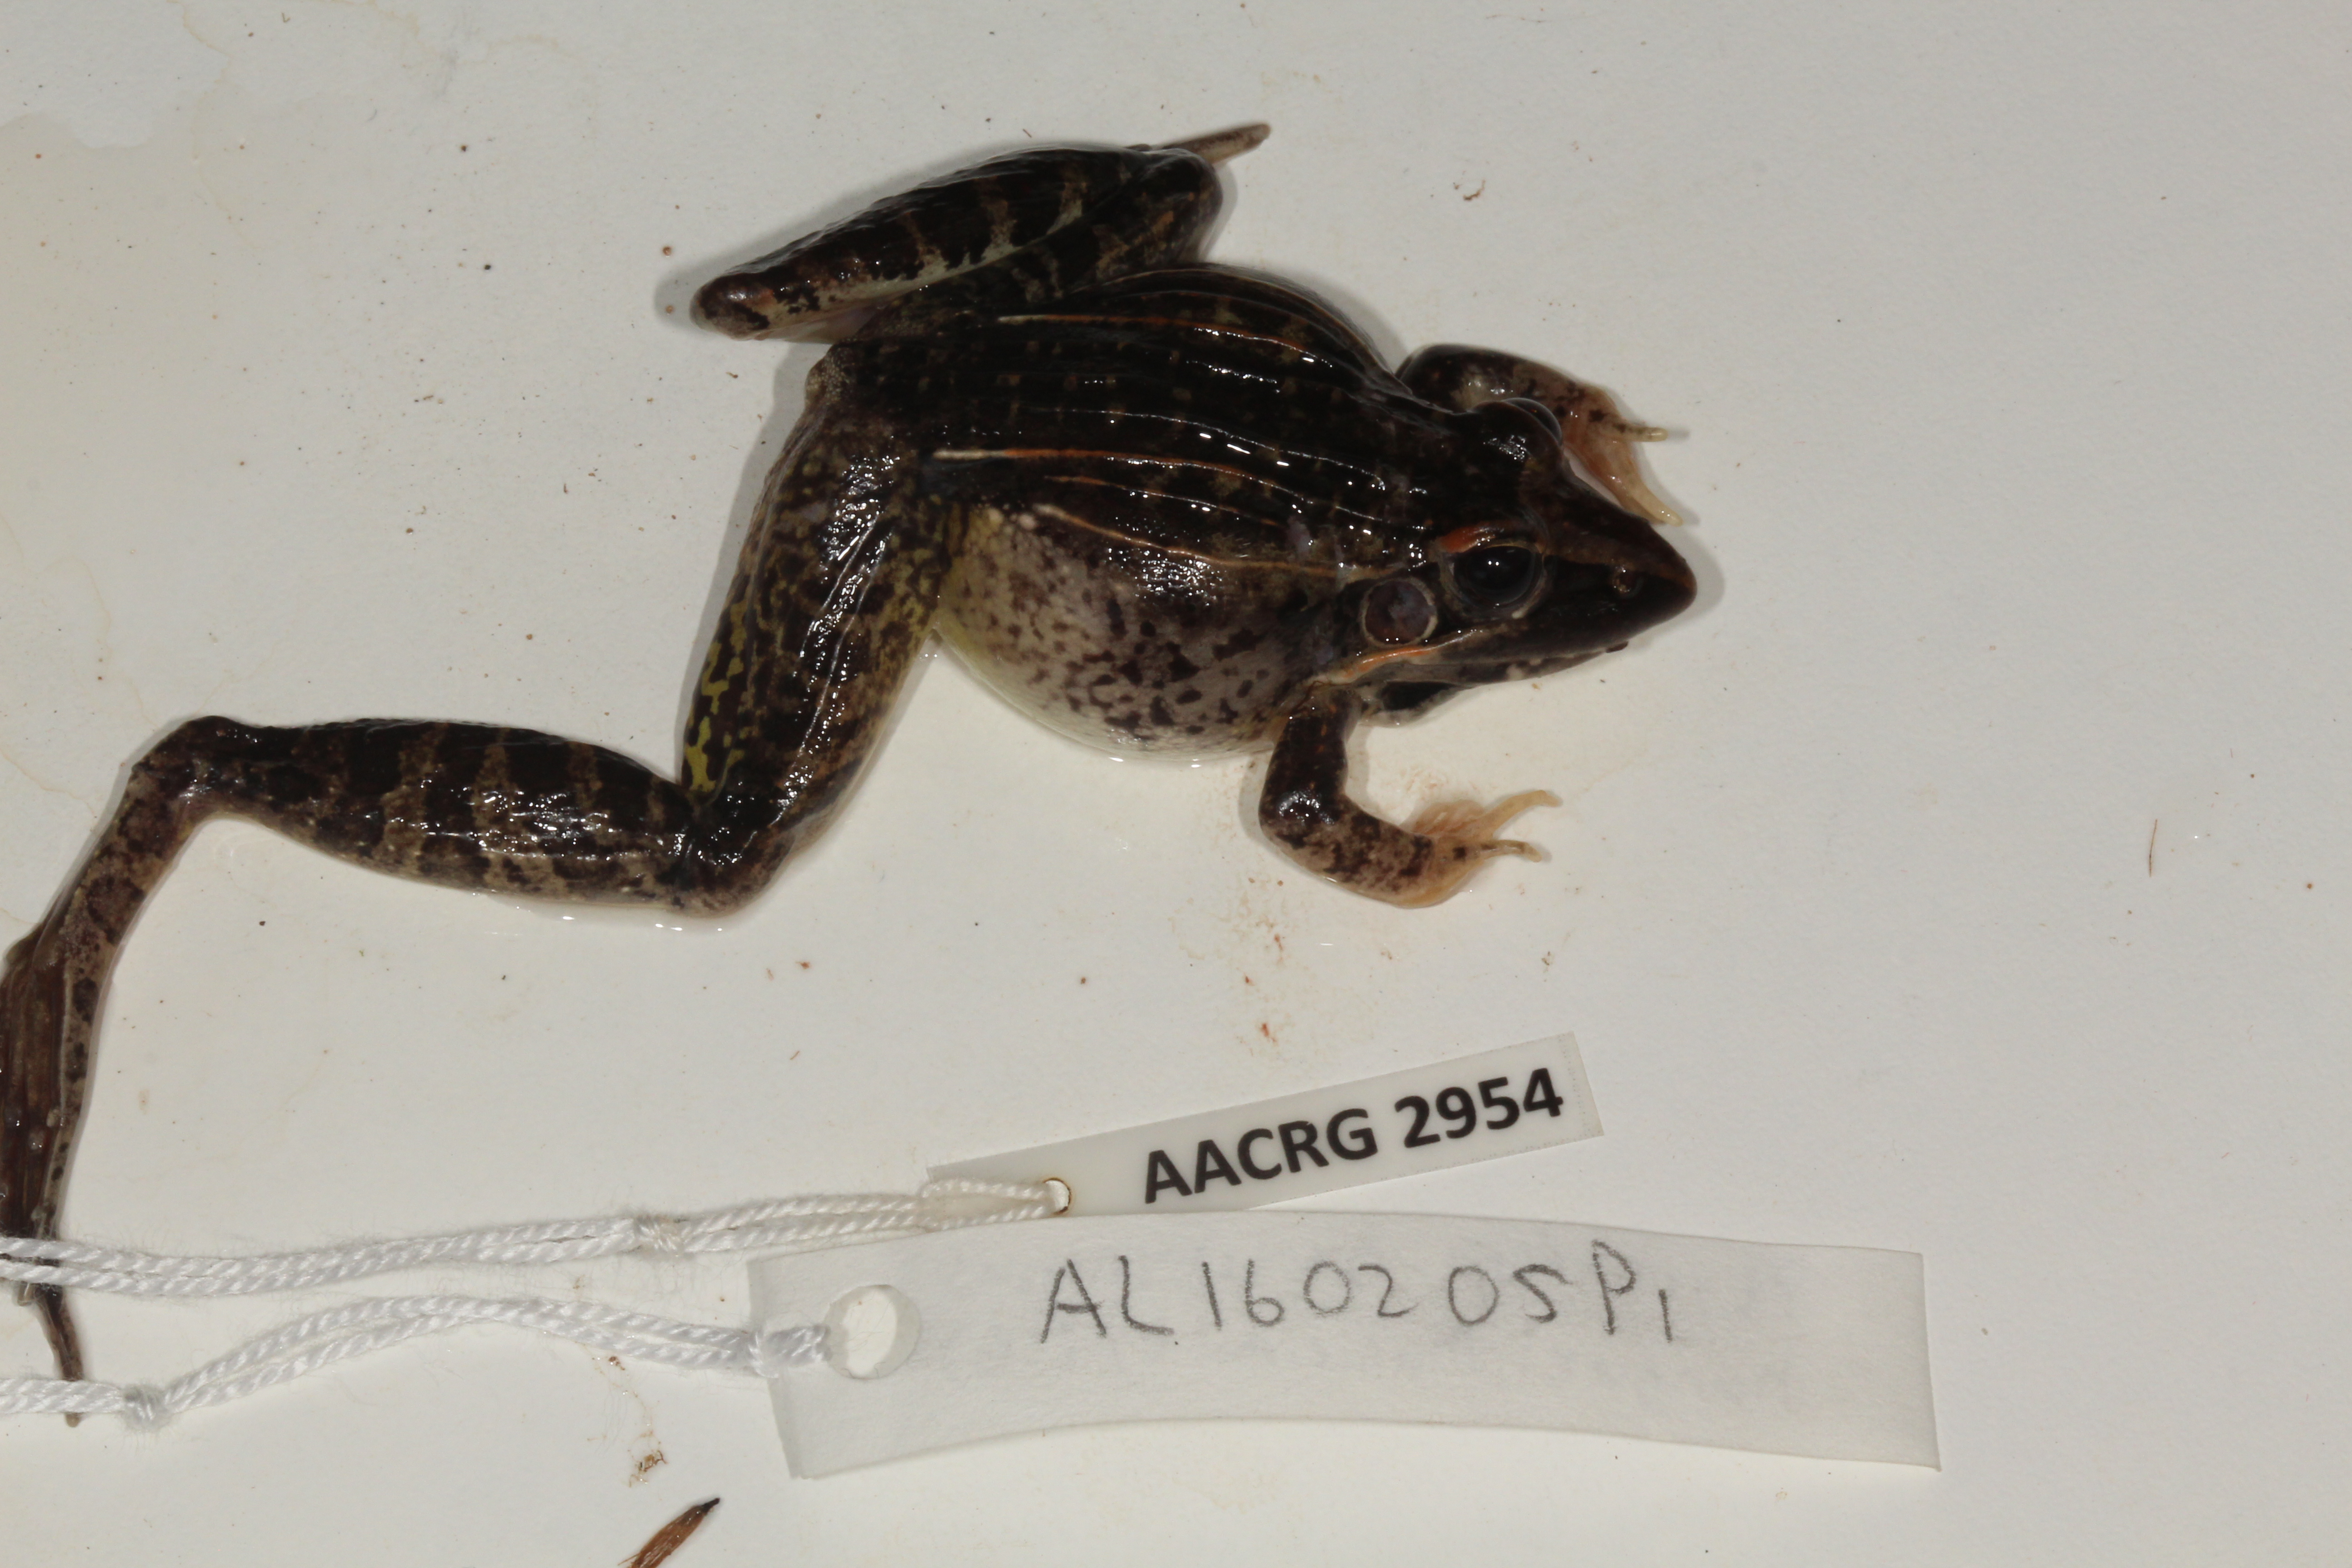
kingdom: Animalia
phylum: Chordata
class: Amphibia
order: Anura
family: Ptychadenidae
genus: Ptychadena
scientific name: Ptychadena oxyrhynchus
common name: Sharp-nosed ridged frog
